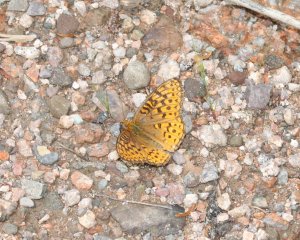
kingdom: Animalia
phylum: Arthropoda
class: Insecta
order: Lepidoptera
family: Nymphalidae
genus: Speyeria
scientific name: Speyeria atlantis
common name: Atlantis Fritillary
